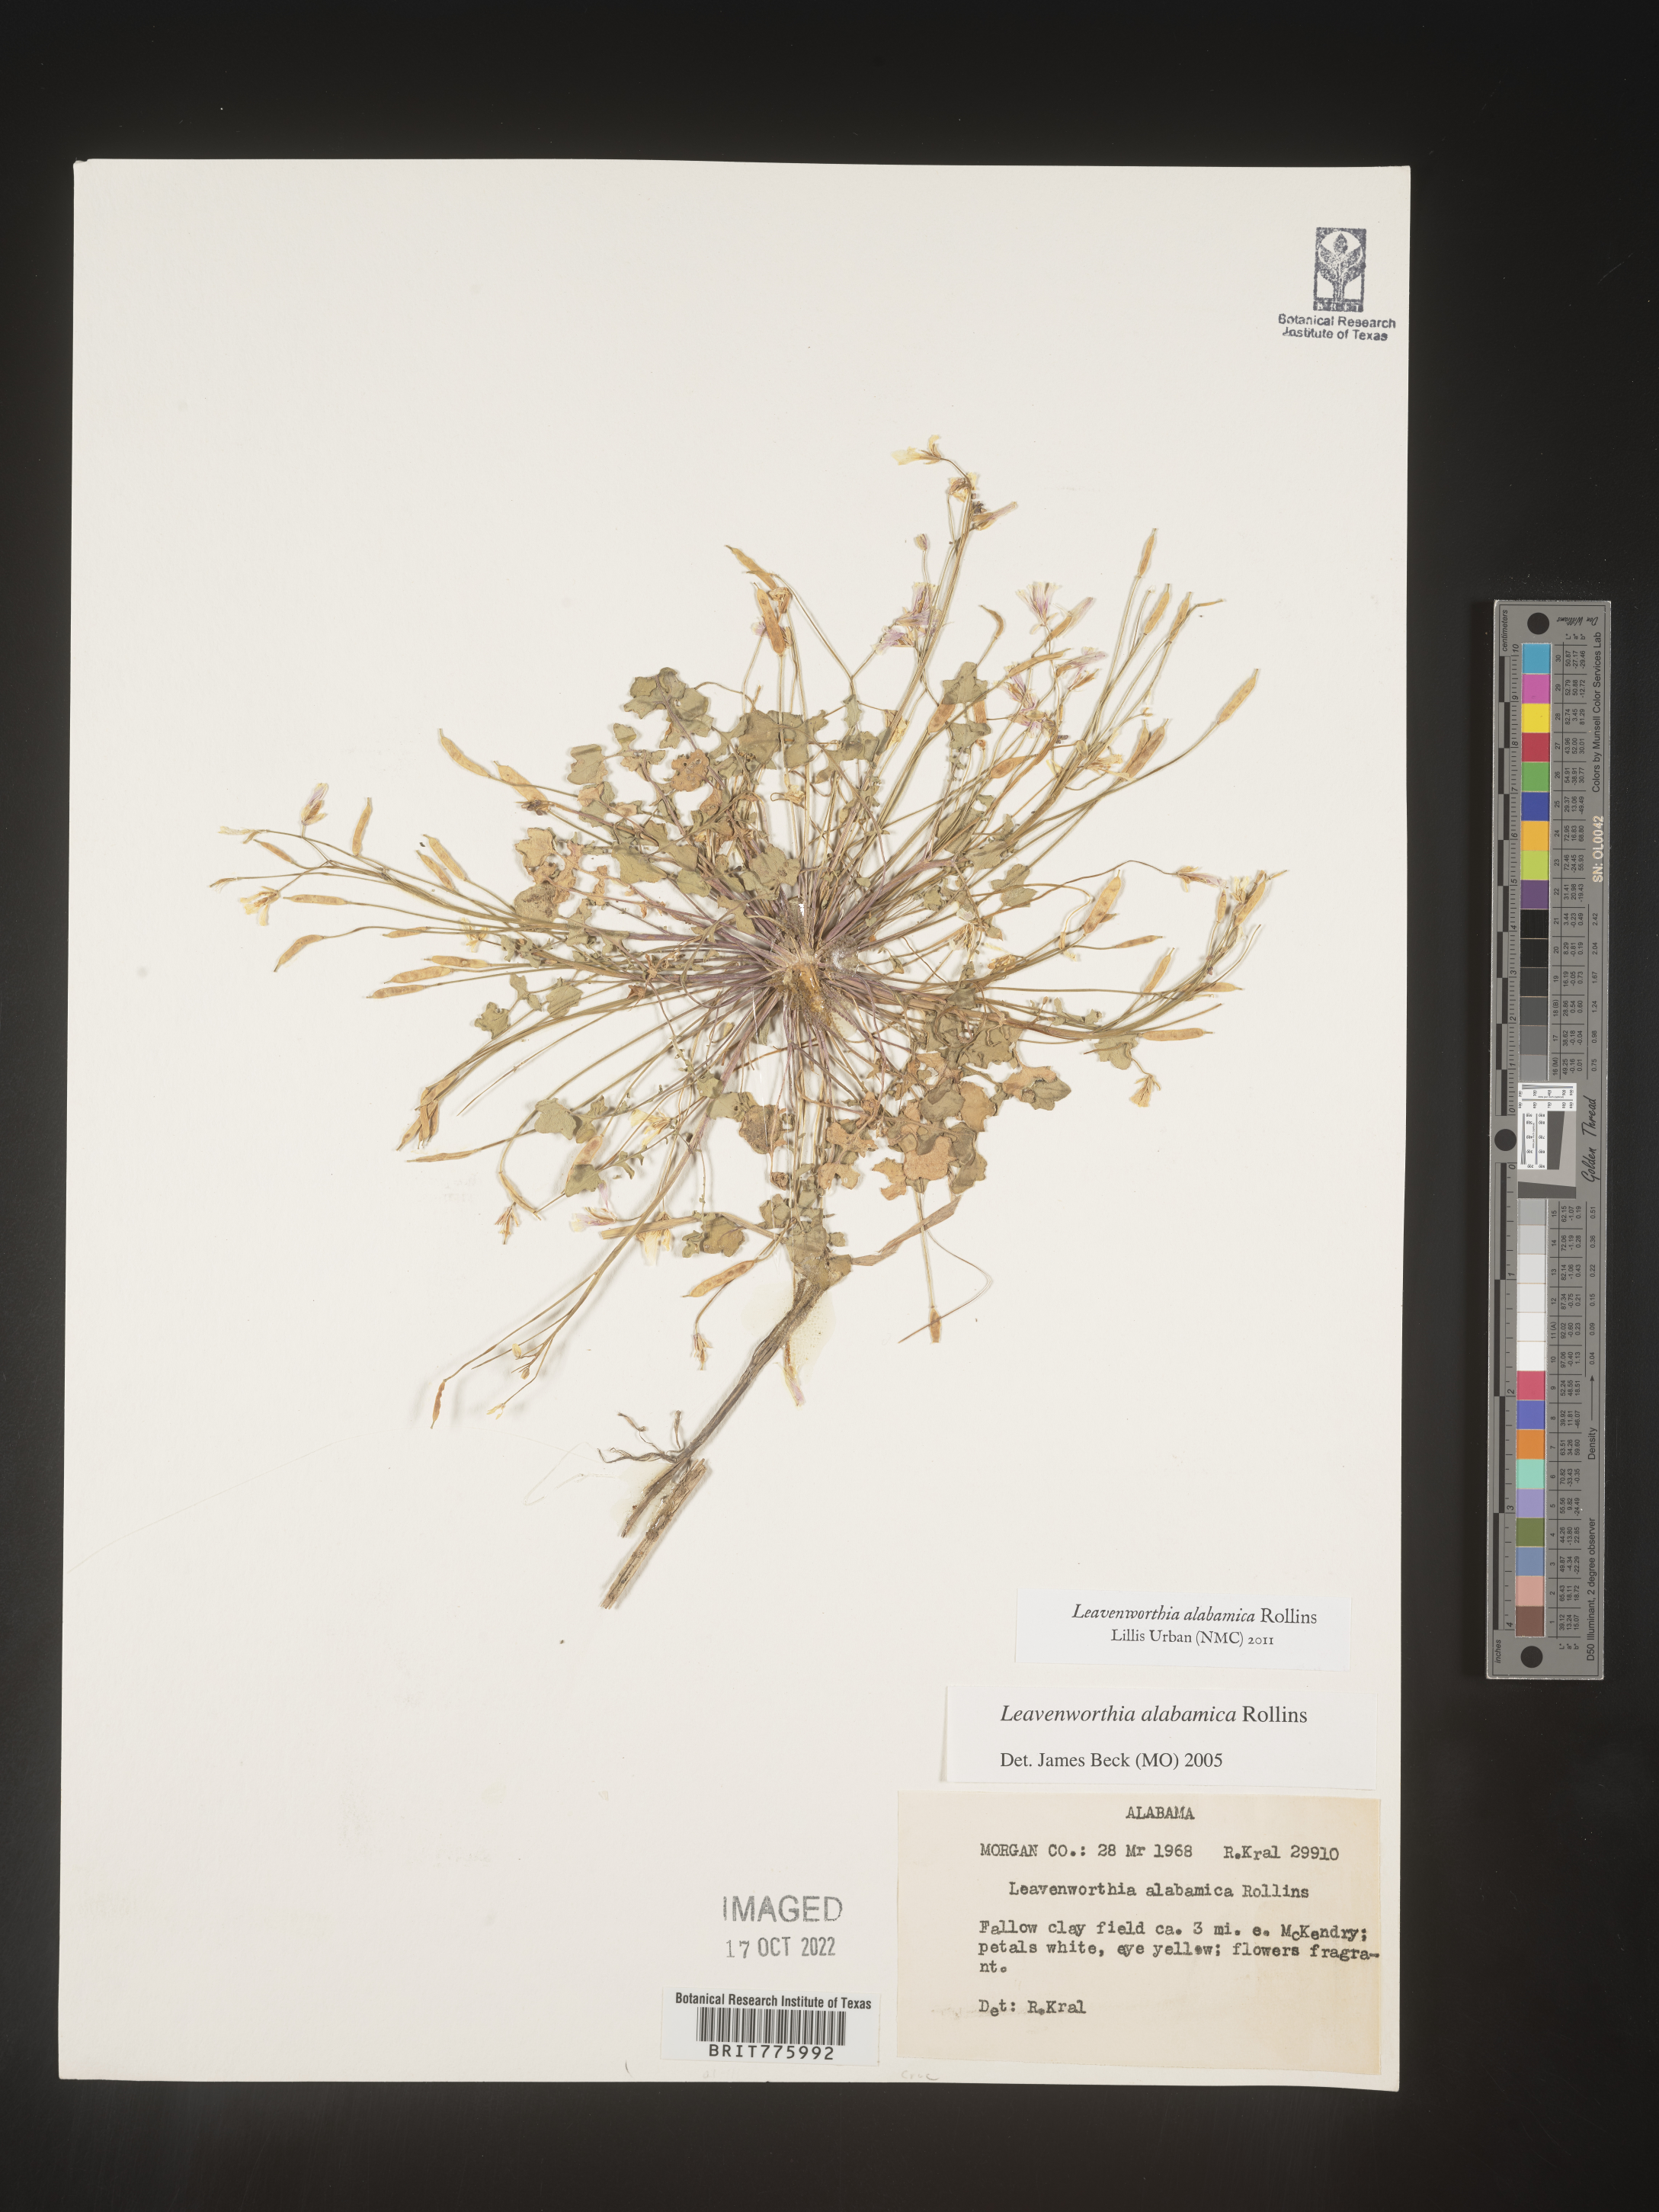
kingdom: Plantae
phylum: Tracheophyta
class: Magnoliopsida
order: Brassicales
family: Brassicaceae
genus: Leavenworthia
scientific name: Leavenworthia
